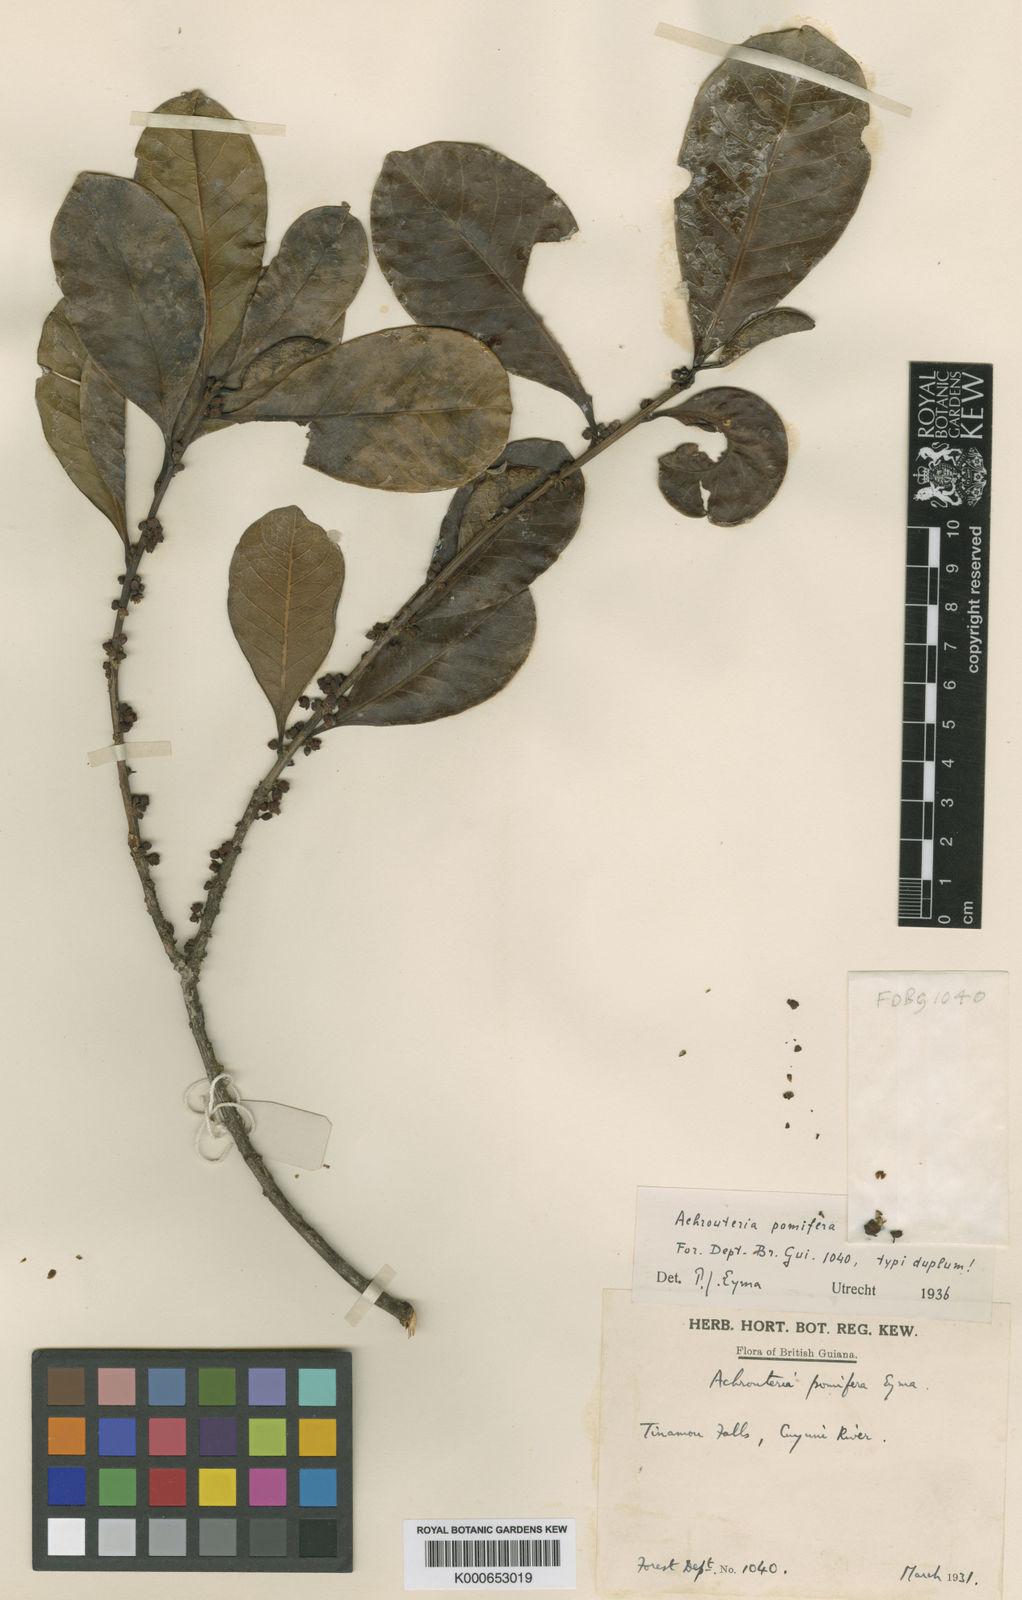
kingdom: Plantae
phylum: Tracheophyta
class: Magnoliopsida
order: Ericales
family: Sapotaceae
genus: Chrysophyllum
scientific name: Chrysophyllum gonocarpum
